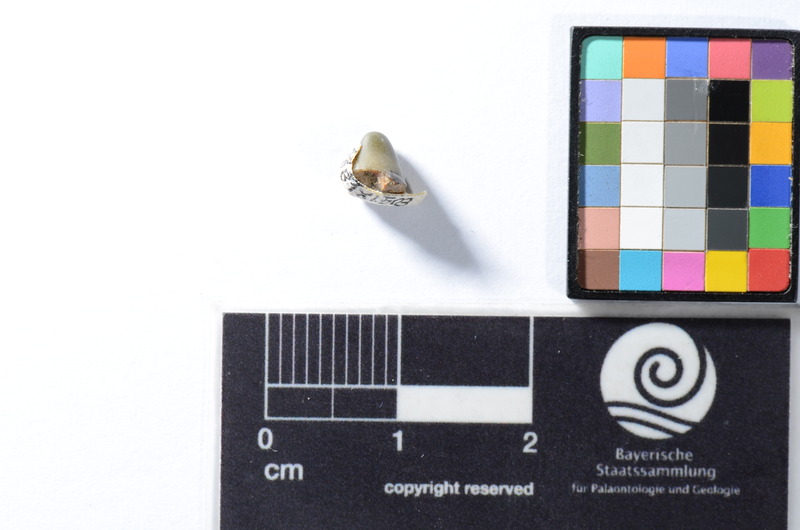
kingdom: Animalia
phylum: Chordata
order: Tetraodontiformes
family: Trigonodontidae
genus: Trigonodon
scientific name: Trigonodon Radamas jugleri
